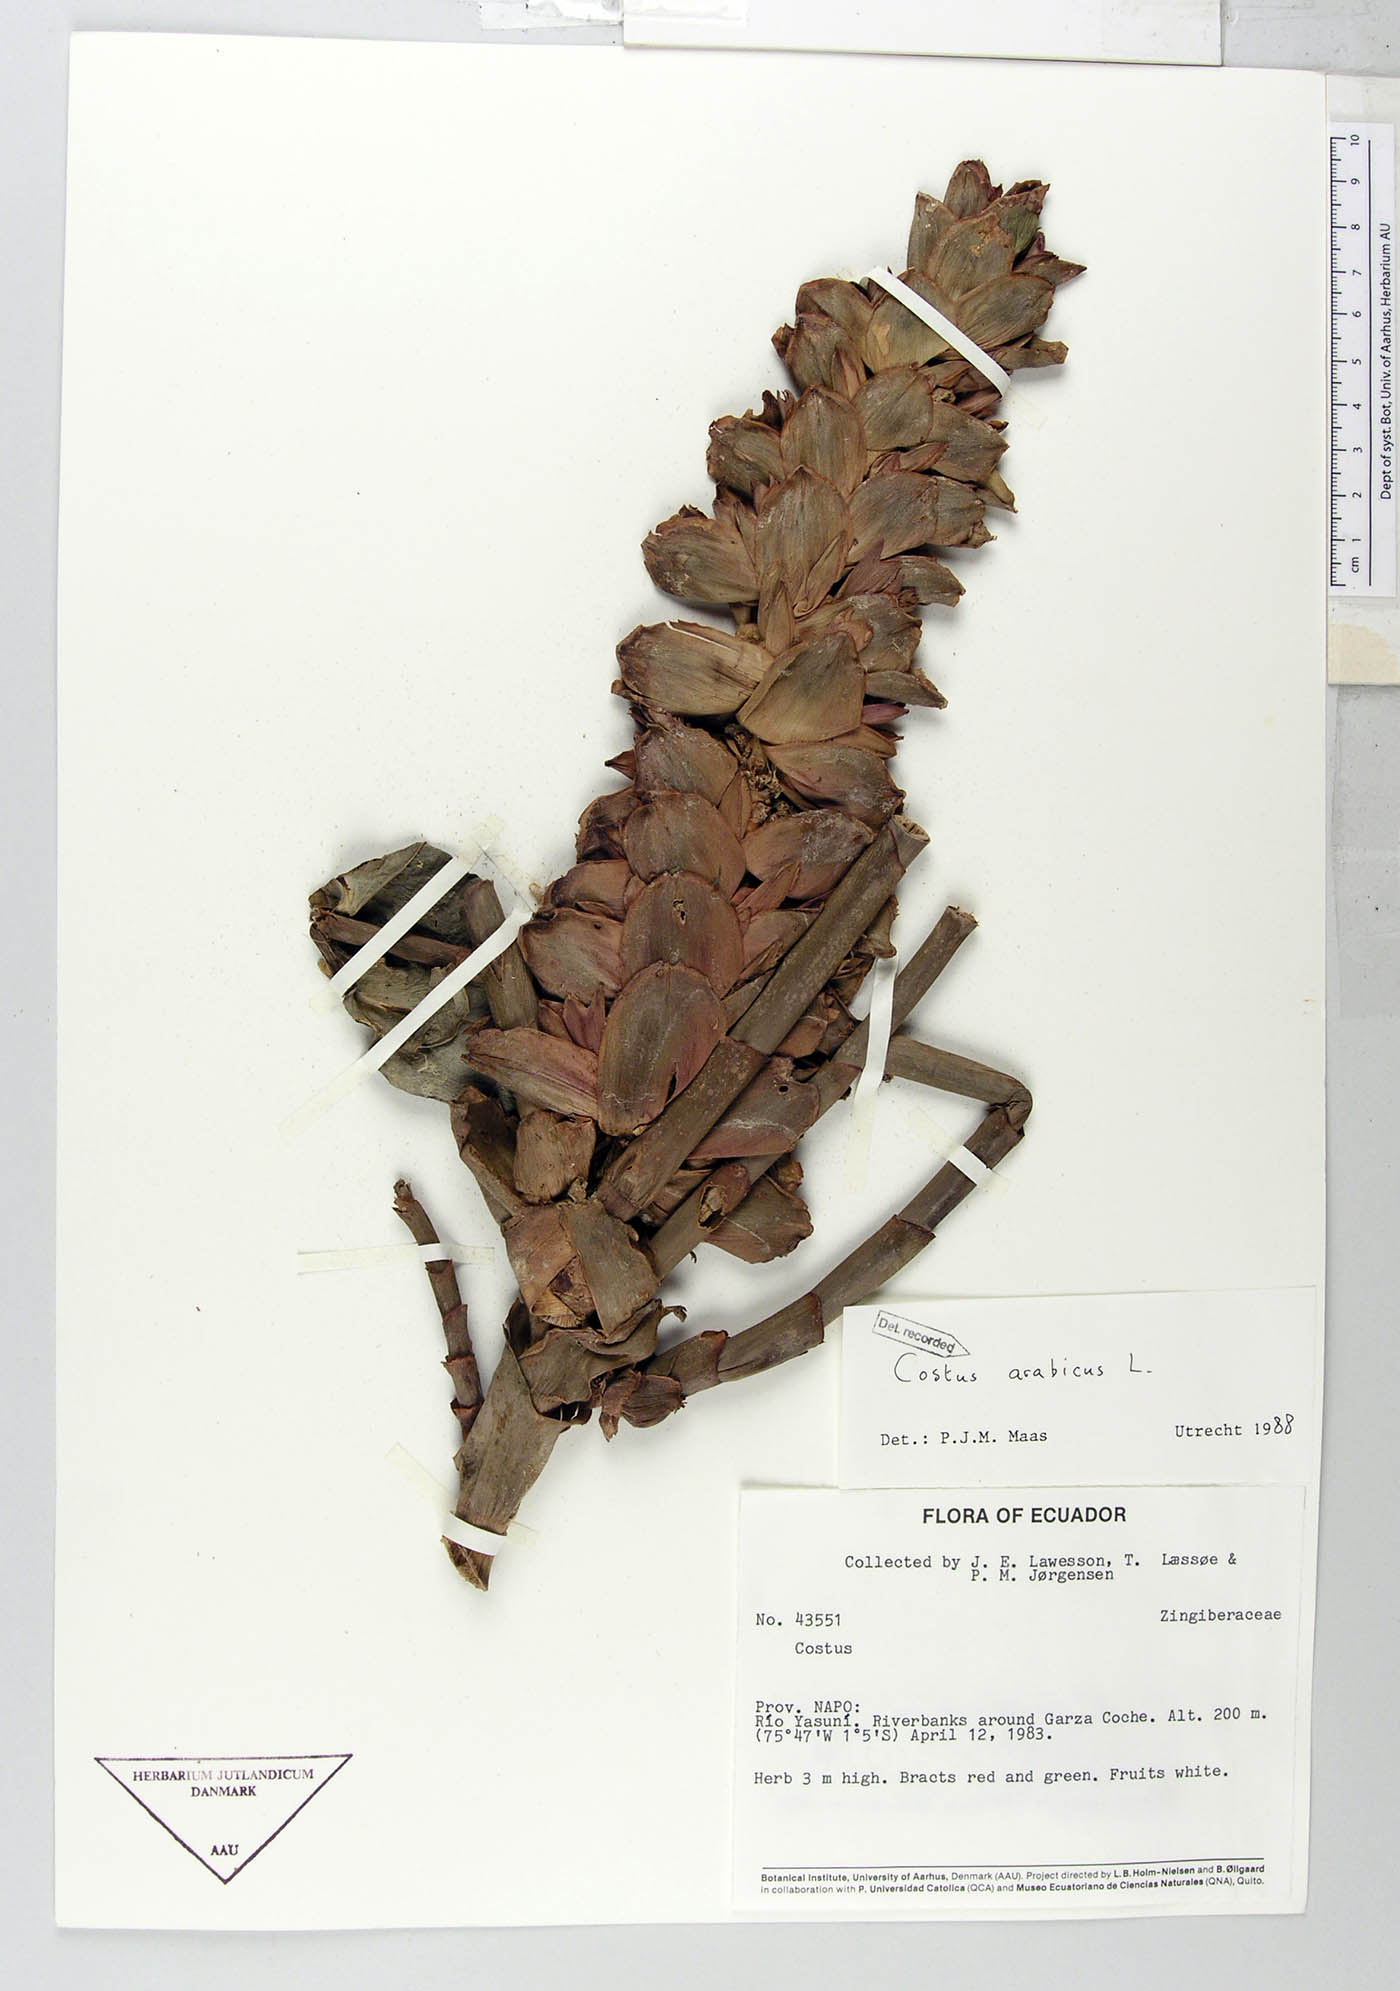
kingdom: Plantae
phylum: Tracheophyta
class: Liliopsida
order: Zingiberales
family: Costaceae
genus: Costus
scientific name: Costus arabicus
